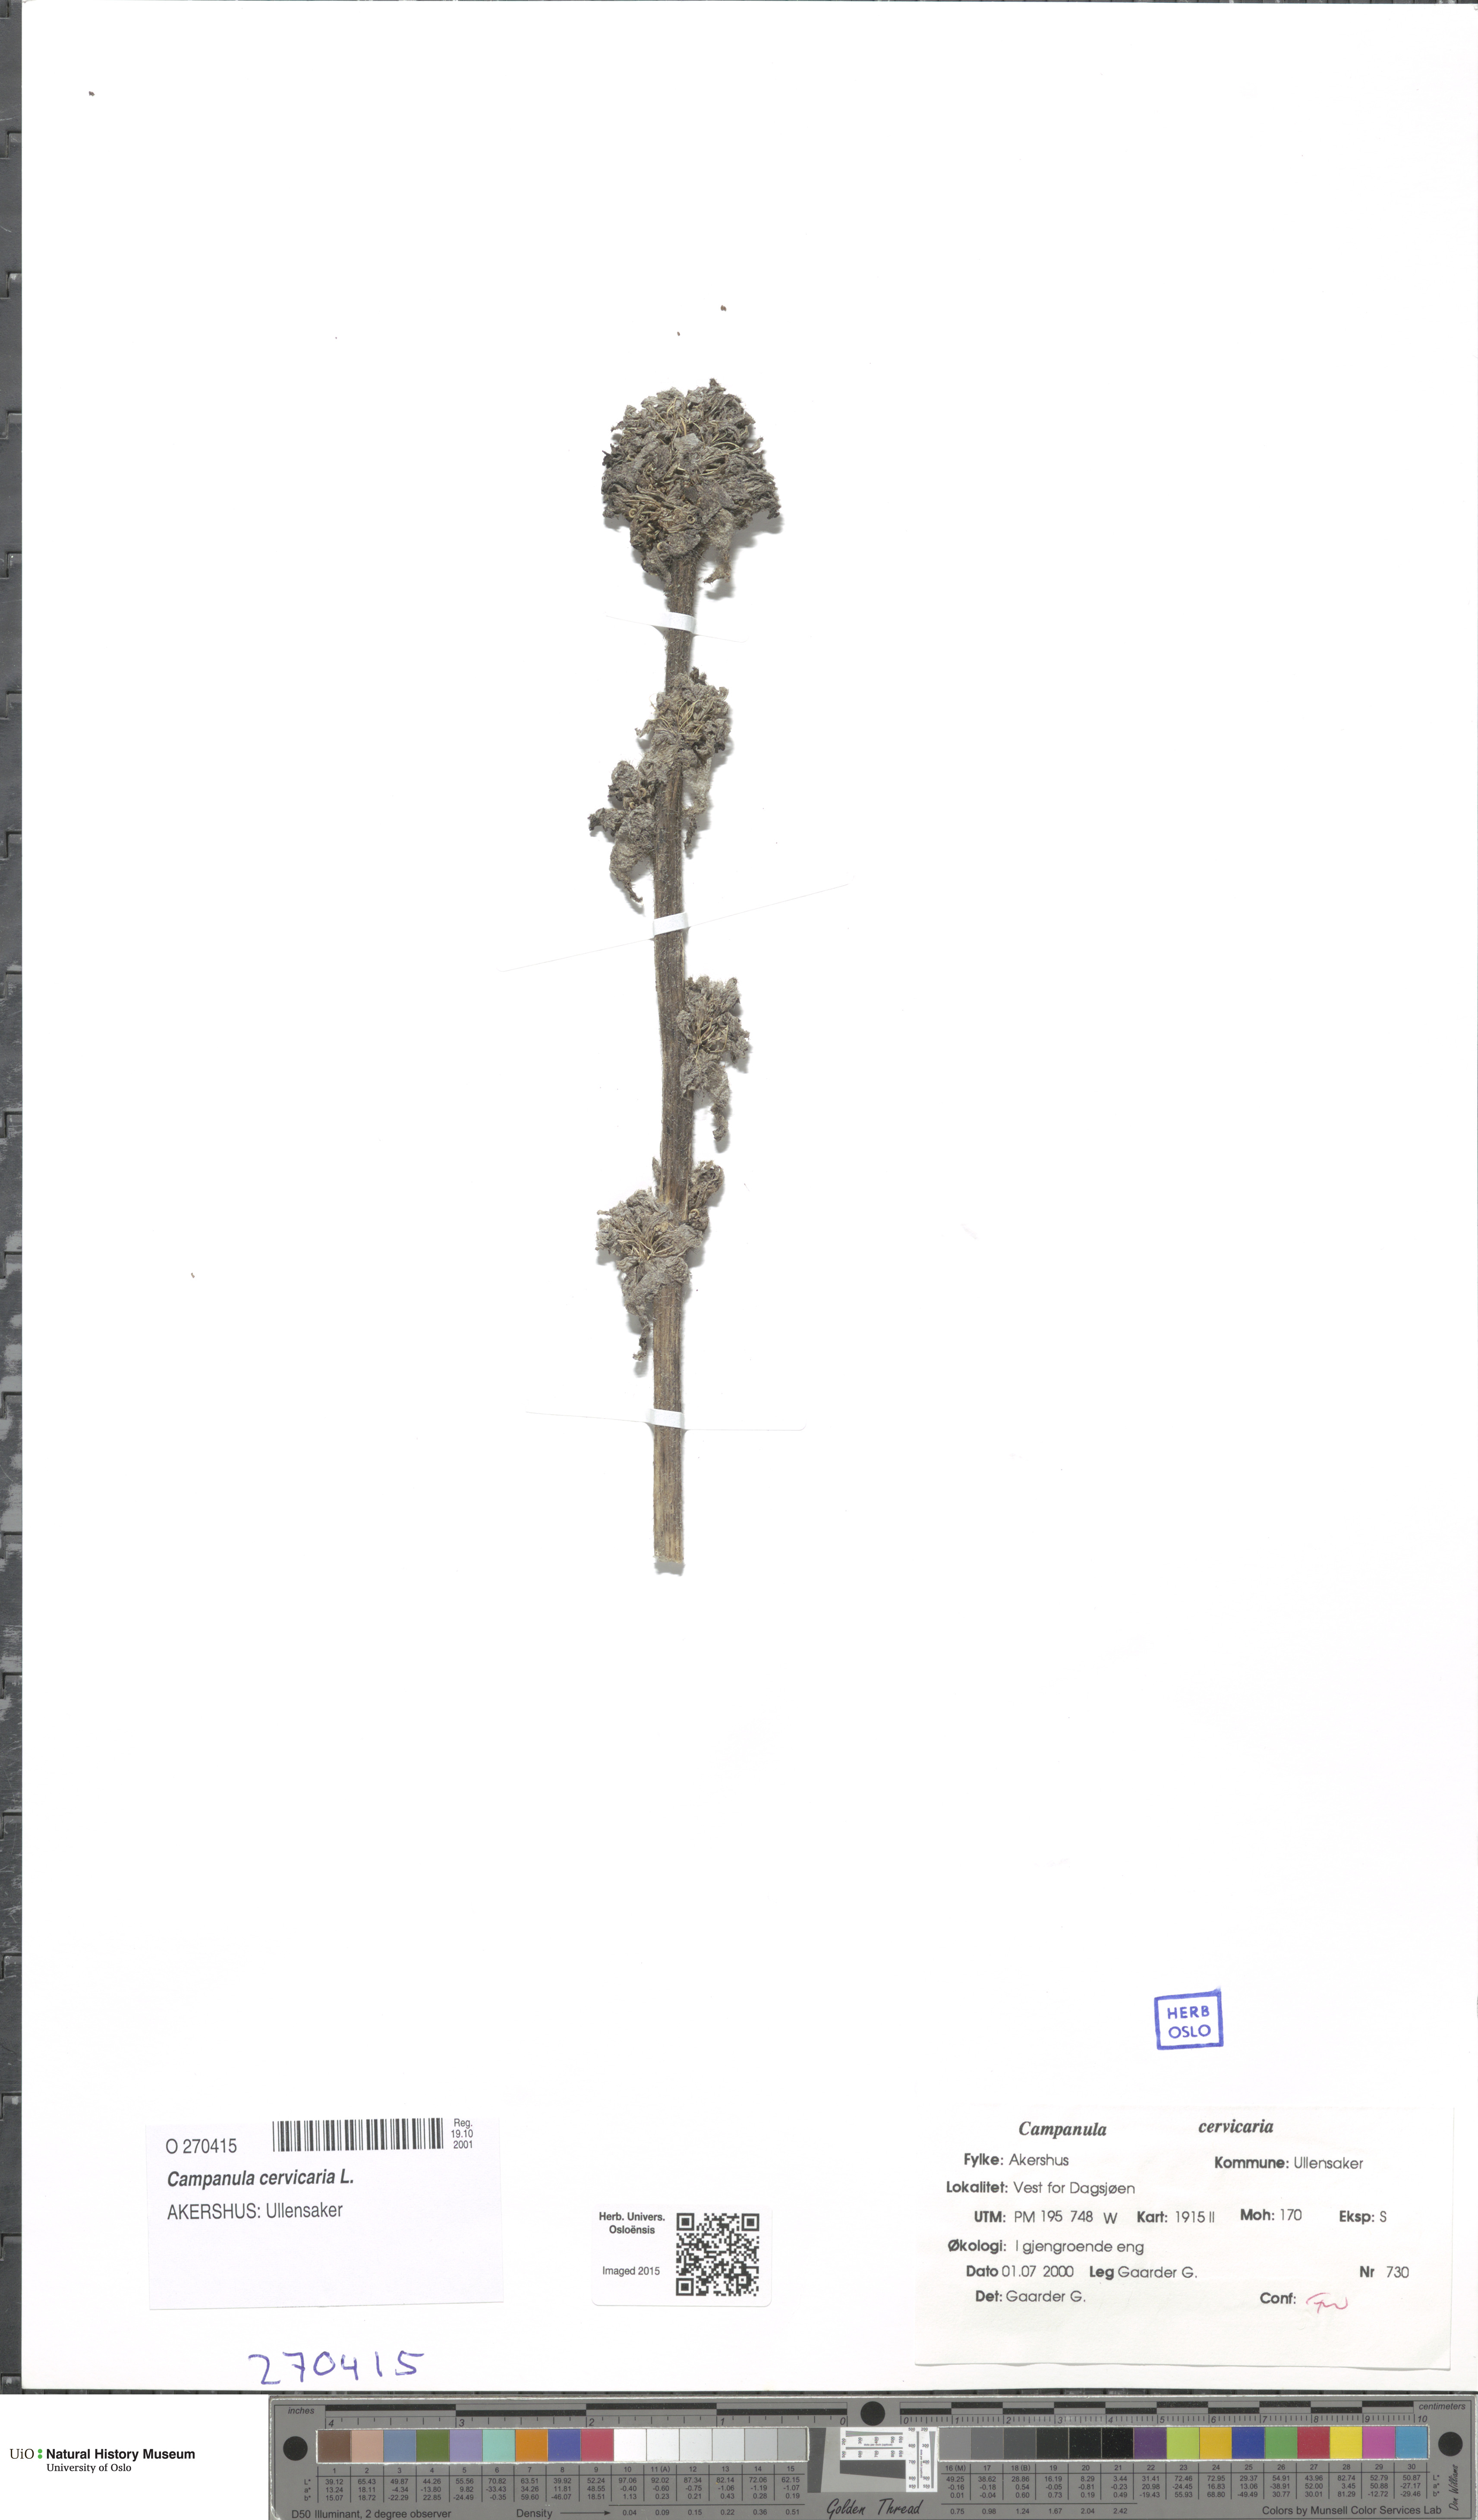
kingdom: Plantae
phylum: Tracheophyta
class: Magnoliopsida
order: Asterales
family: Campanulaceae
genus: Campanula
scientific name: Campanula cervicaria
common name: Bristly bellflower
